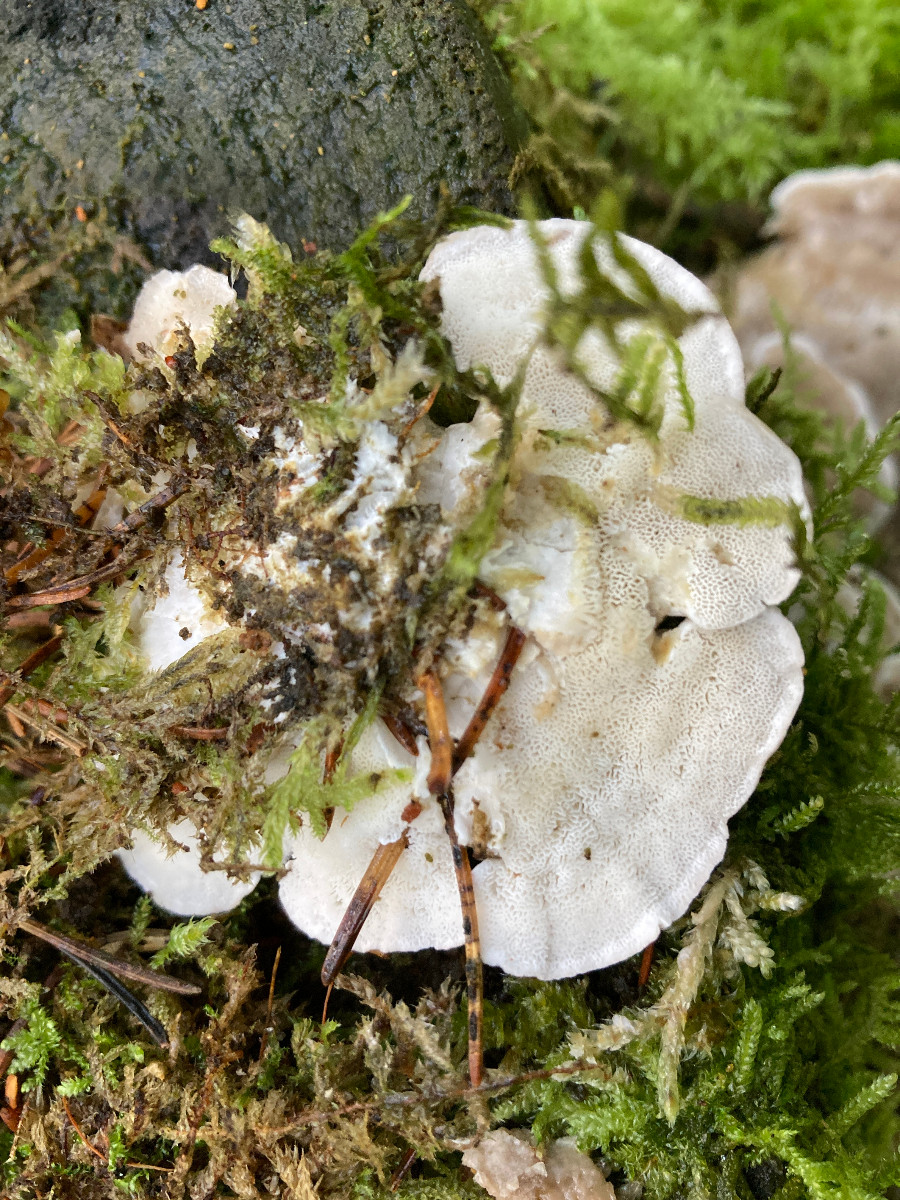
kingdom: Fungi
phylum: Basidiomycota
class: Agaricomycetes
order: Polyporales
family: Polyporaceae
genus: Trametes
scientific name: Trametes gibbosa
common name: puklet læderporesvamp
